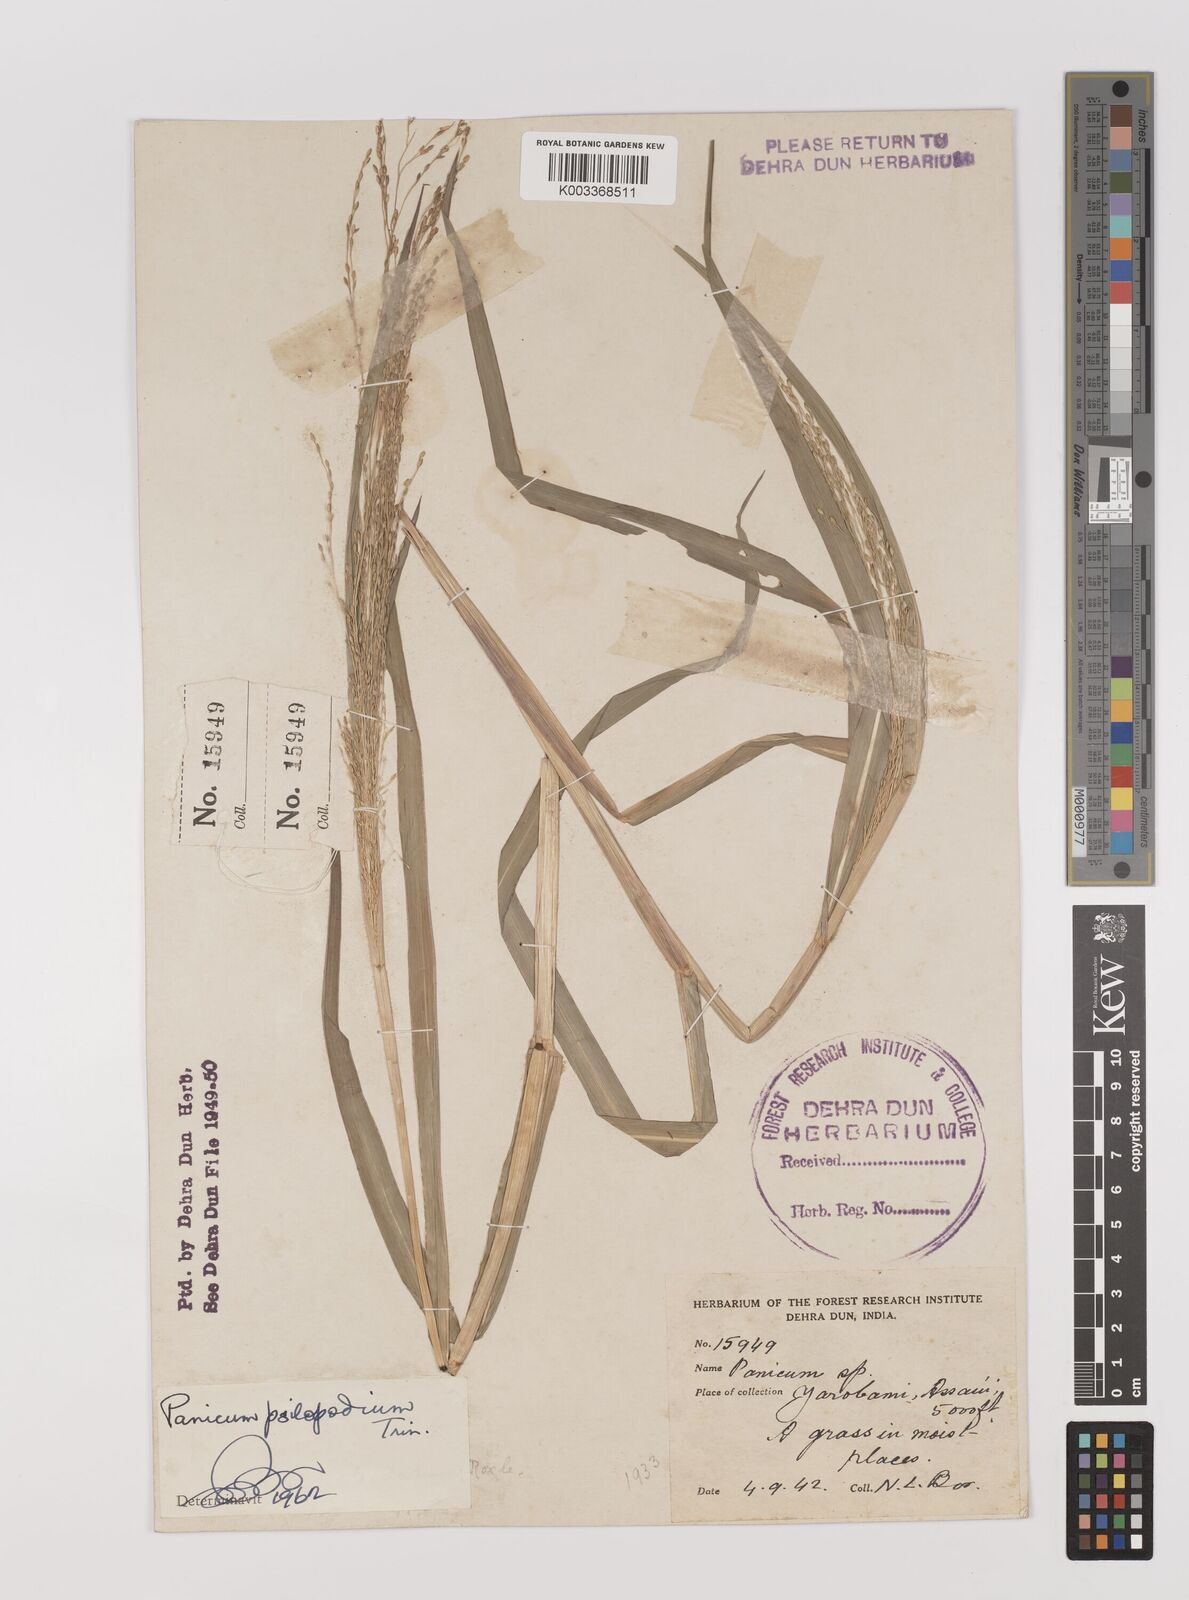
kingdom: Plantae
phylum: Tracheophyta
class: Liliopsida
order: Poales
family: Poaceae
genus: Panicum
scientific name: Panicum sumatrense
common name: Little millet
